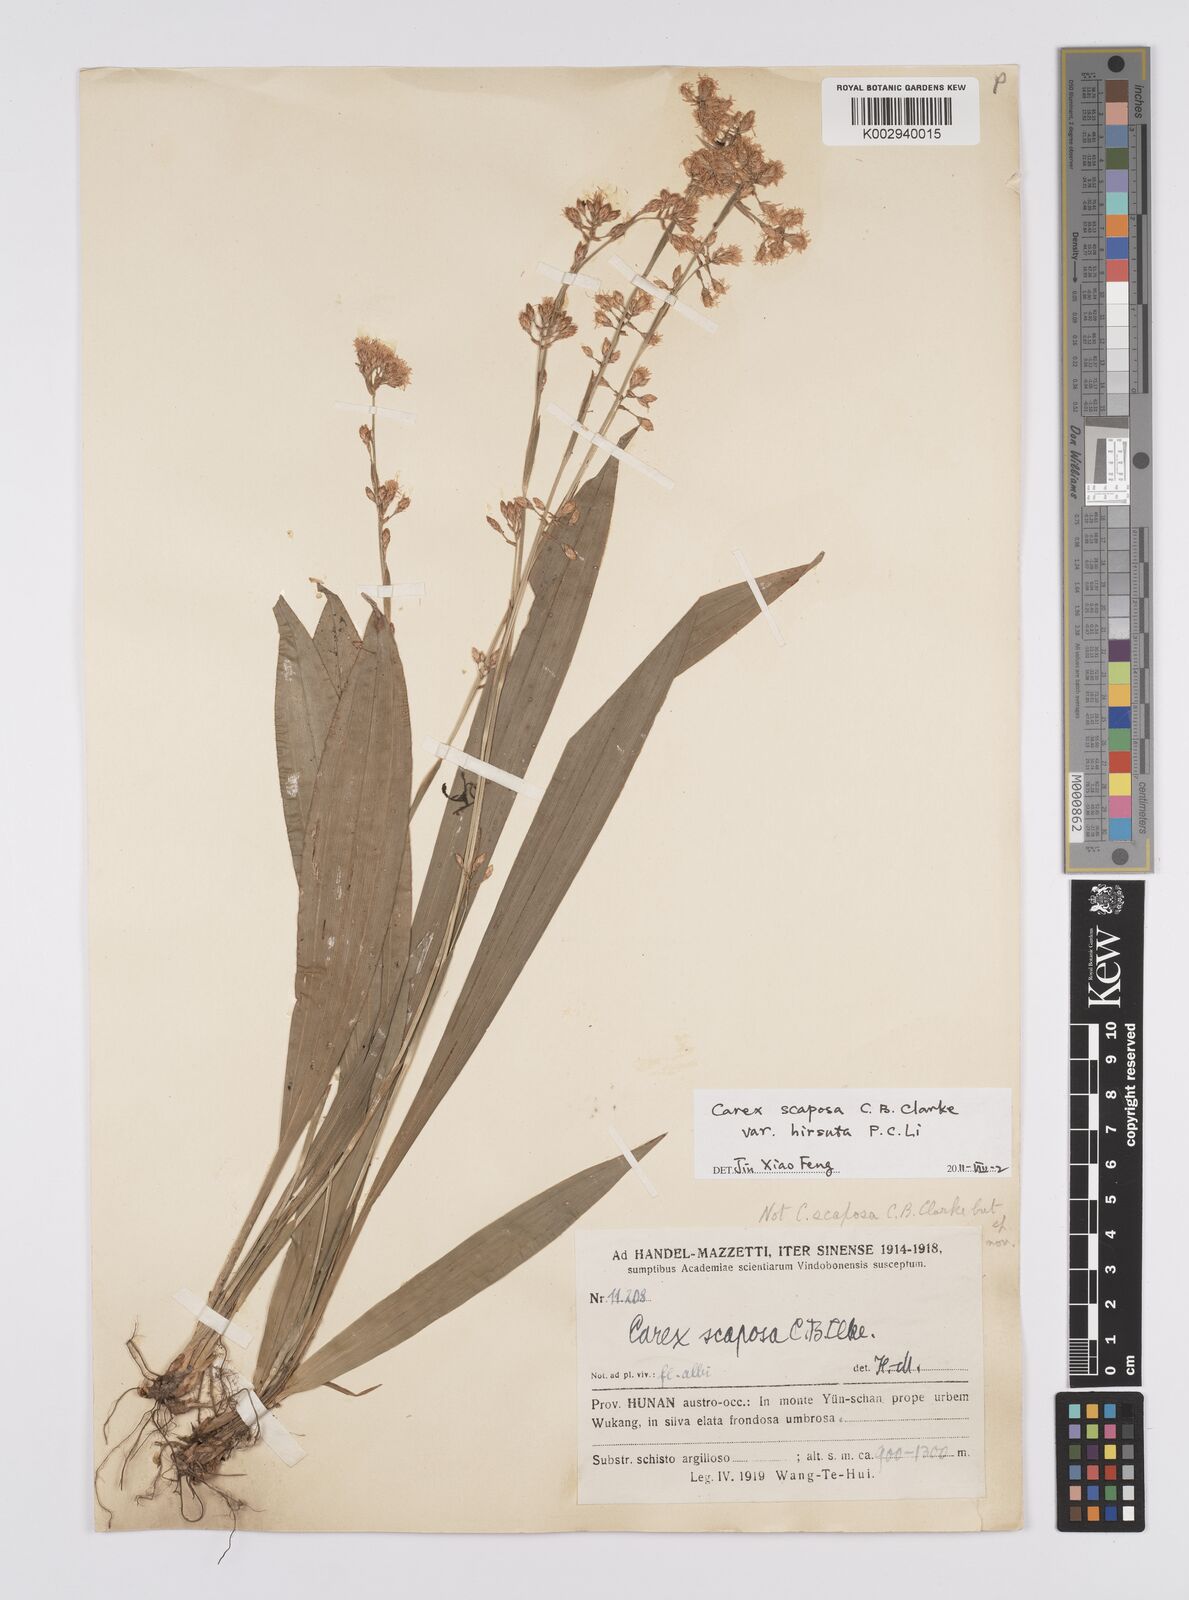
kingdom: Plantae
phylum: Tracheophyta
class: Liliopsida
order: Poales
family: Cyperaceae
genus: Carex
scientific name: Carex scaposa
